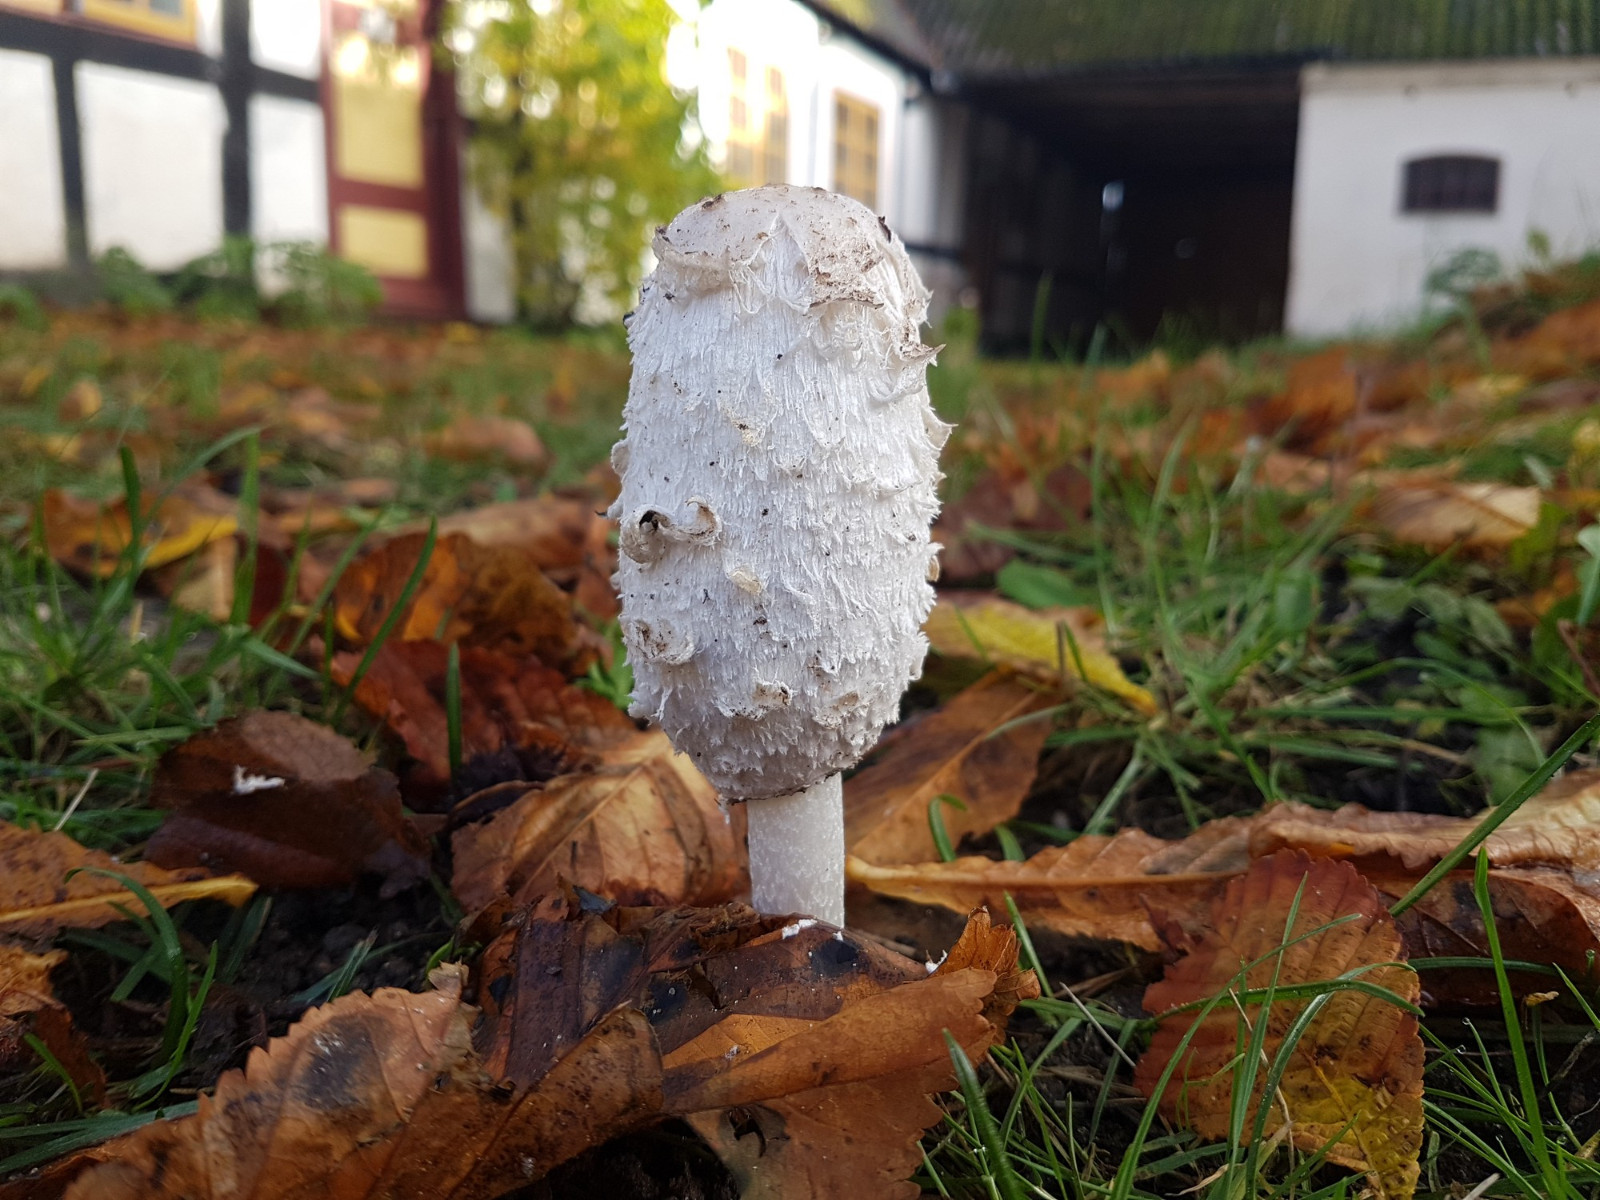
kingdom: Fungi
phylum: Basidiomycota
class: Agaricomycetes
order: Agaricales
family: Agaricaceae
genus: Coprinus
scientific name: Coprinus comatus
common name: stor parykhat
